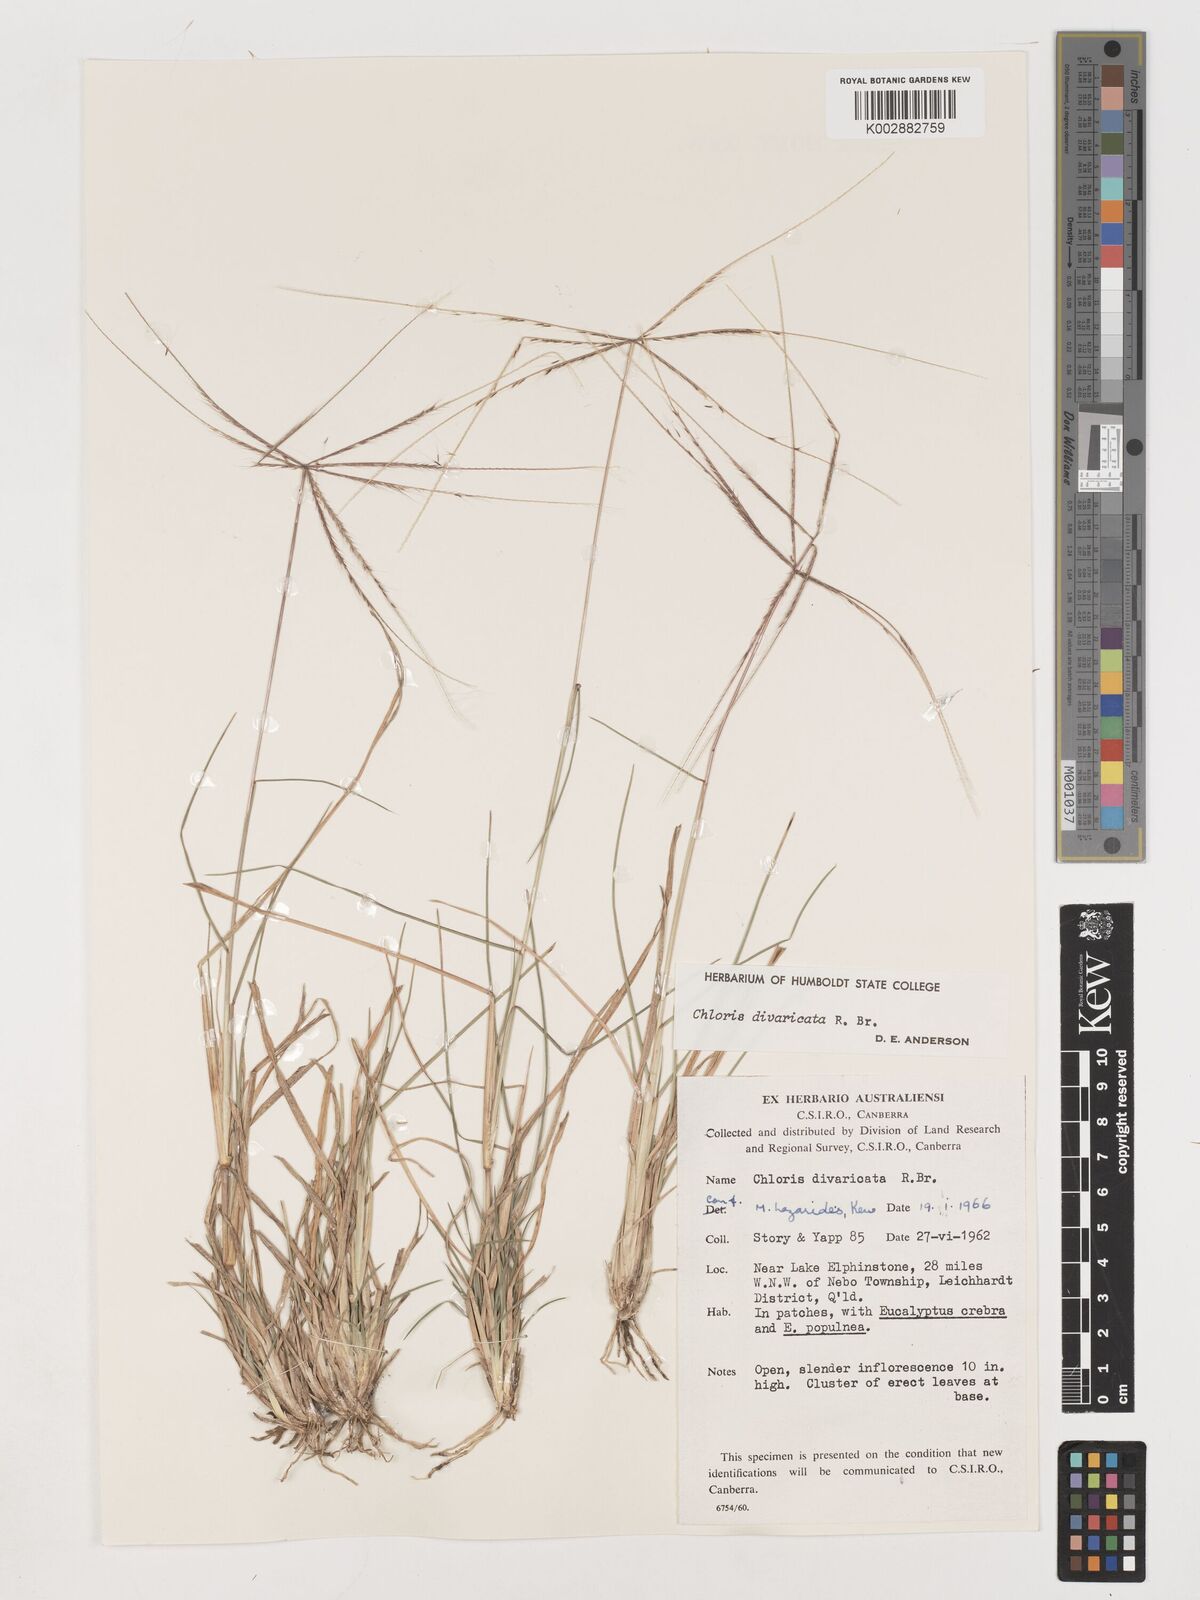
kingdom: Plantae
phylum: Tracheophyta
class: Liliopsida
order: Poales
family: Poaceae
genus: Chloris
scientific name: Chloris divaricata
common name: Spreading windmill grass
